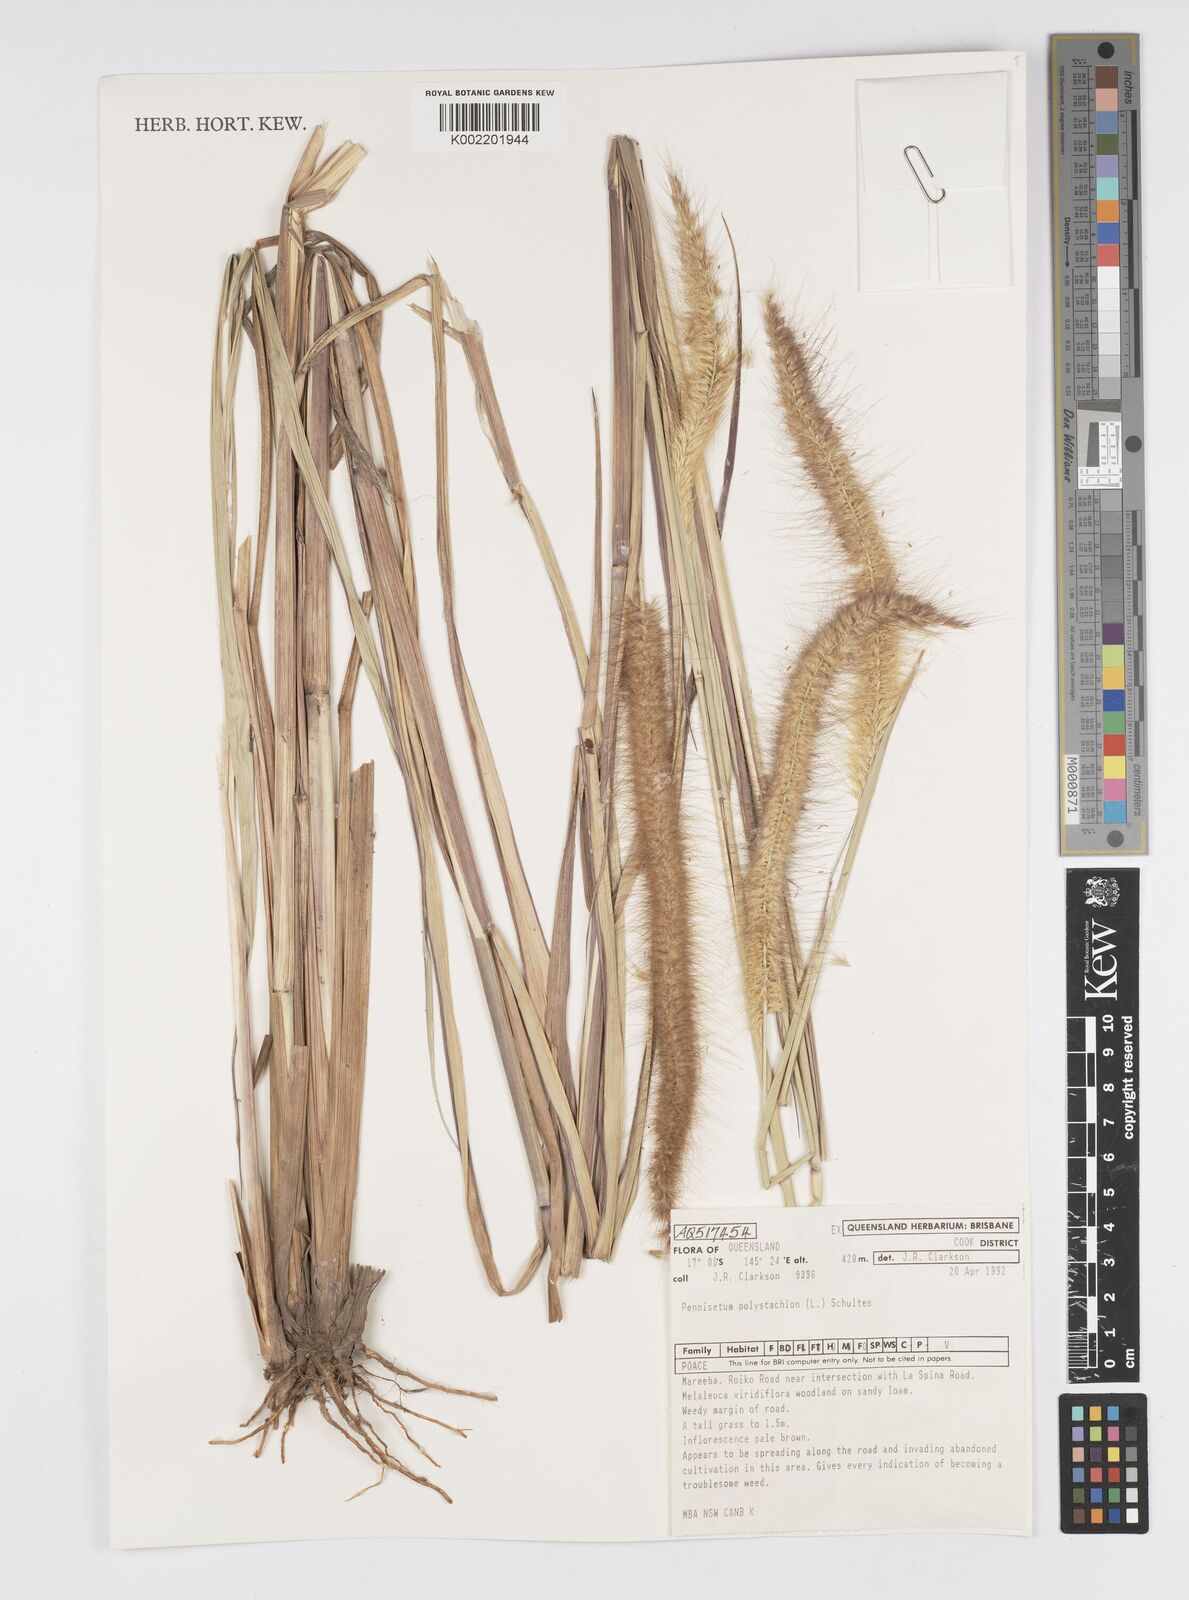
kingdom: Plantae
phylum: Tracheophyta
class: Liliopsida
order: Poales
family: Poaceae
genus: Setaria
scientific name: Setaria parviflora
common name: Knotroot bristle-grass
